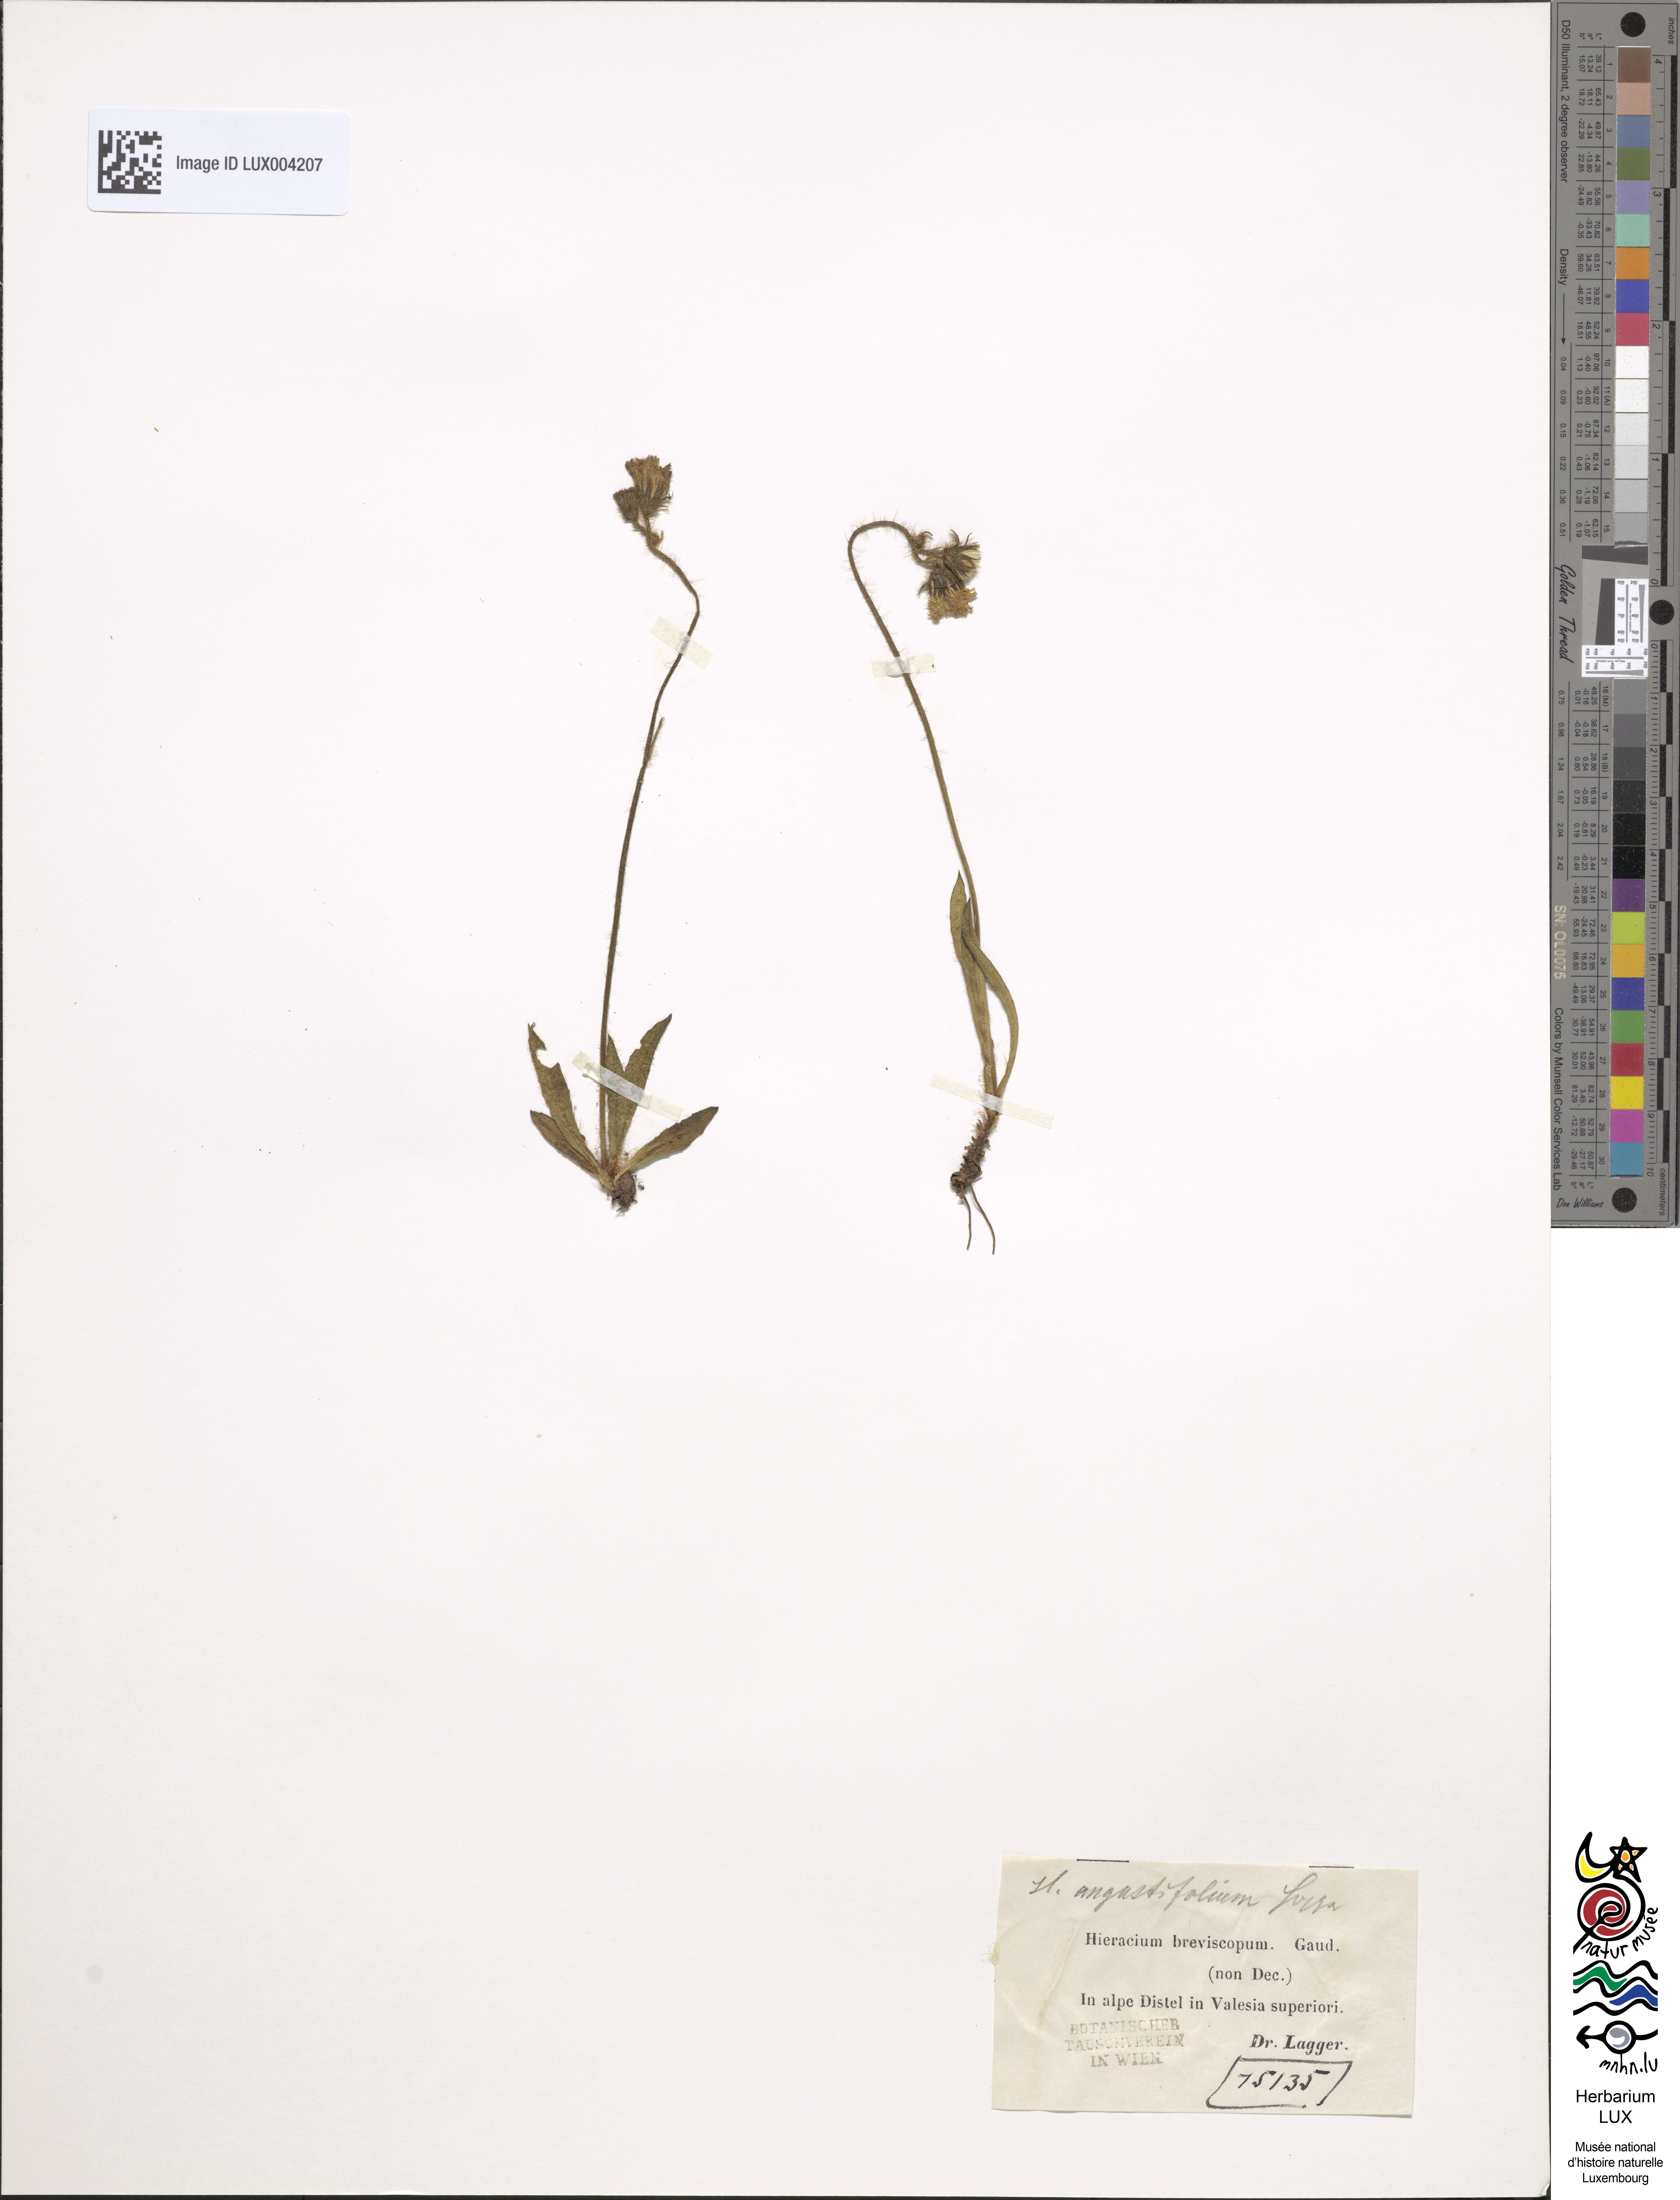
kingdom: Plantae
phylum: Tracheophyta
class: Magnoliopsida
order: Asterales
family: Asteraceae
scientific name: Asteraceae
